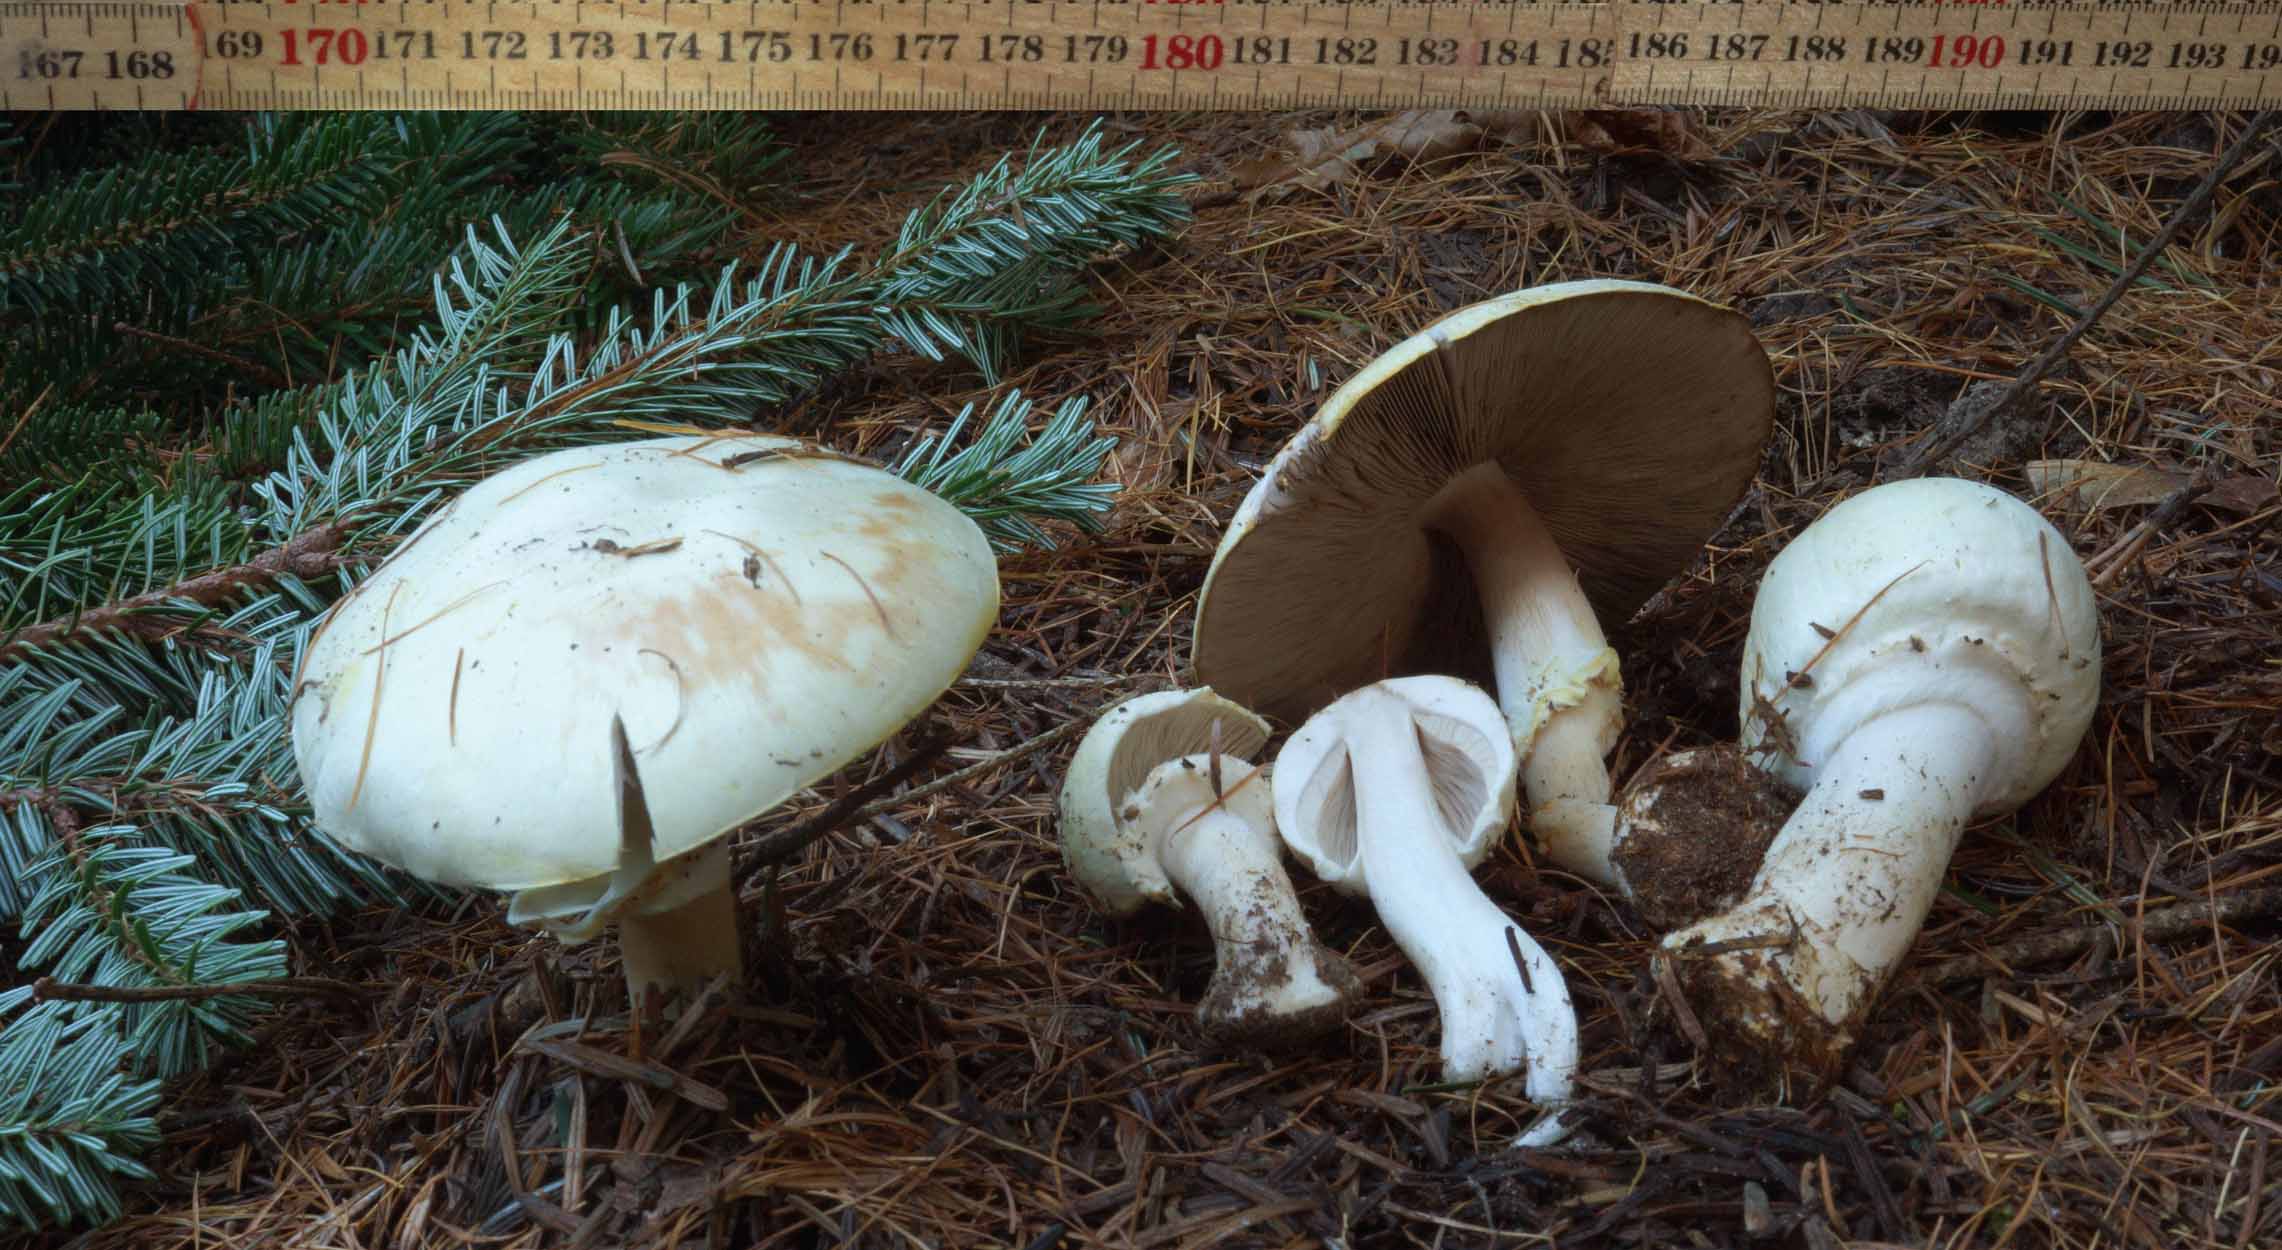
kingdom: Fungi
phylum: Basidiomycota
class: Agaricomycetes
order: Agaricales
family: Agaricaceae
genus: Agaricus
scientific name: Agaricus sylvicola
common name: skiveknoldet champignon
